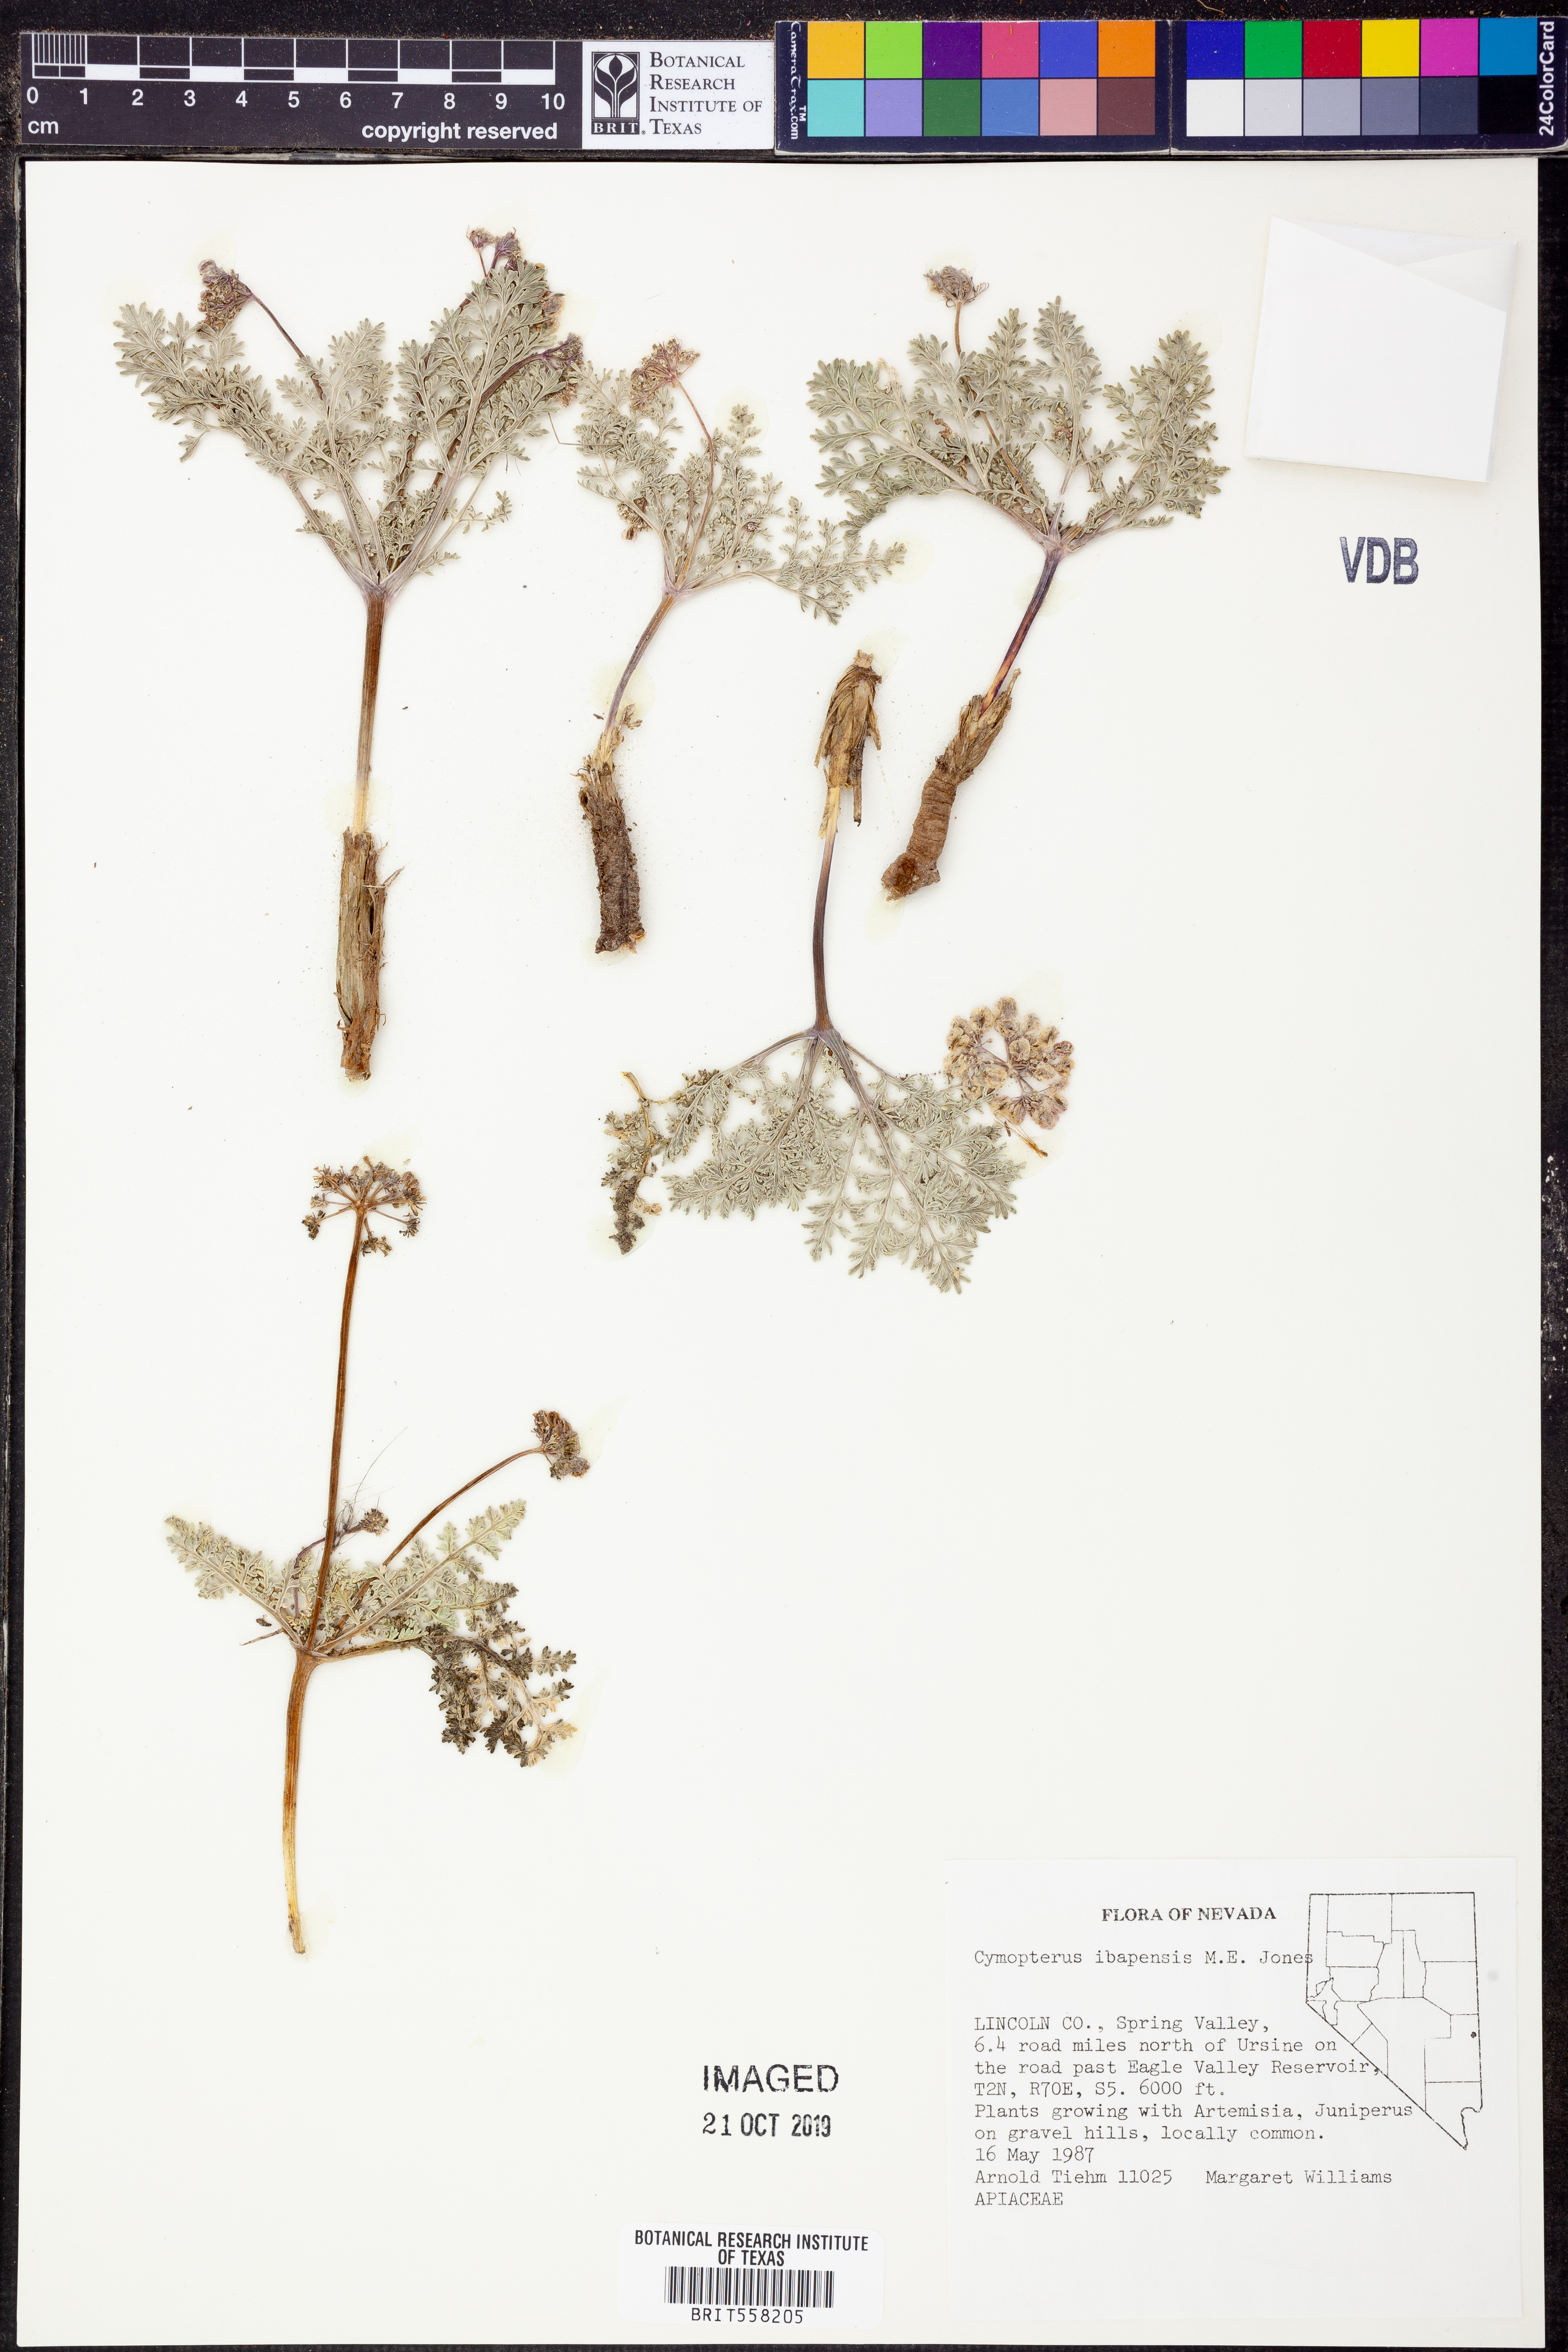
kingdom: Plantae
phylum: Tracheophyta
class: Magnoliopsida
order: Apiales
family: Apiaceae
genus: Aulospermum
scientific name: Aulospermum ibapense
